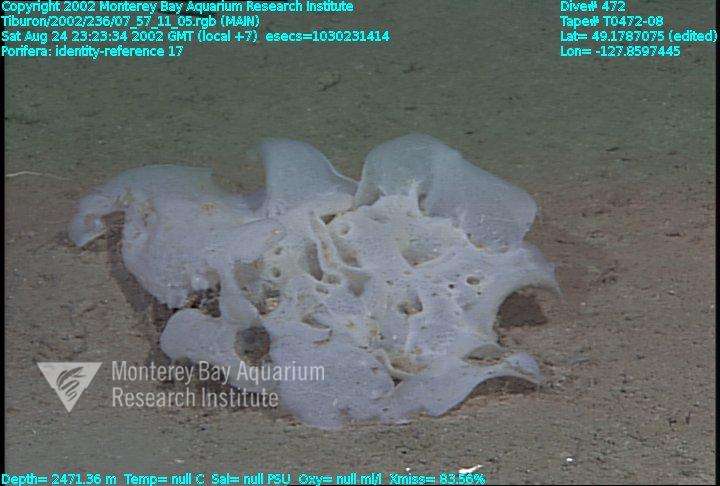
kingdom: Animalia
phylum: Porifera
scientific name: Porifera
